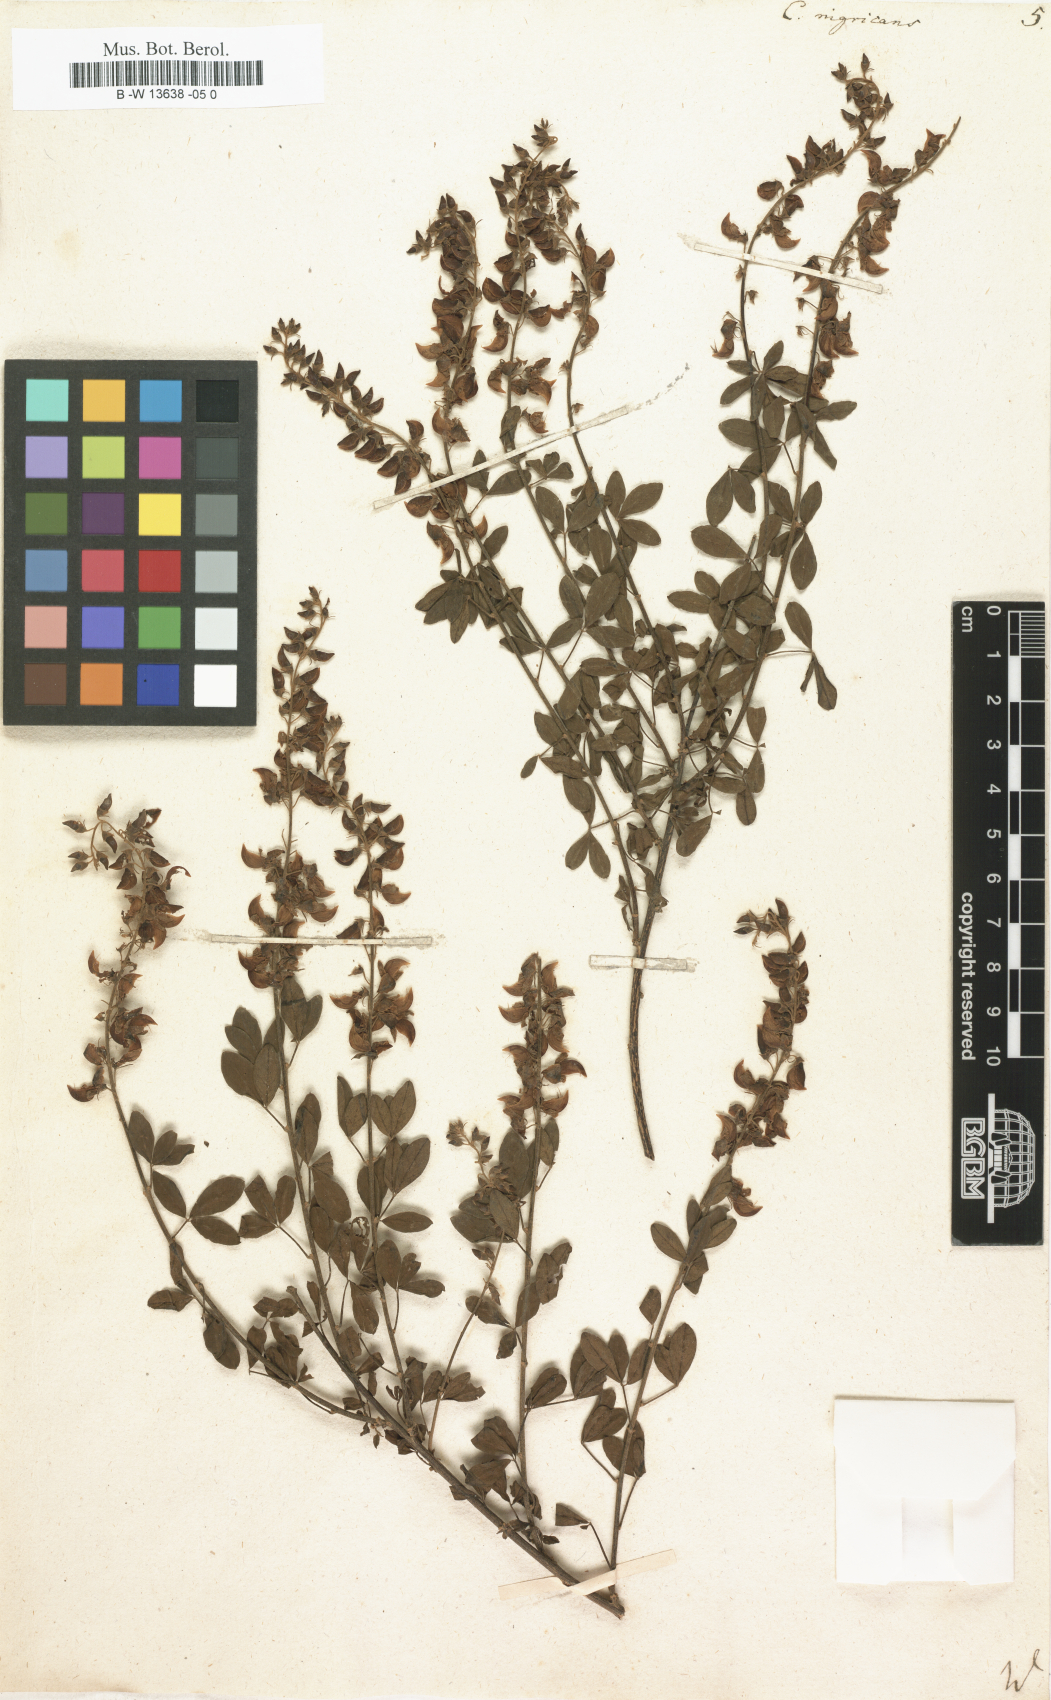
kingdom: Plantae
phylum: Tracheophyta
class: Magnoliopsida
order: Fabales
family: Fabaceae
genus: Cytisus
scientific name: Cytisus nigricans
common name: Black broom
